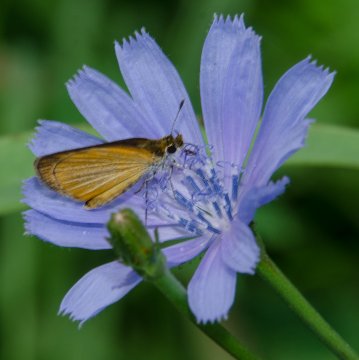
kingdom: Animalia
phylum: Arthropoda
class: Insecta
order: Lepidoptera
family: Hesperiidae
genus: Ancyloxypha
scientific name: Ancyloxypha numitor
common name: Least Skipper
